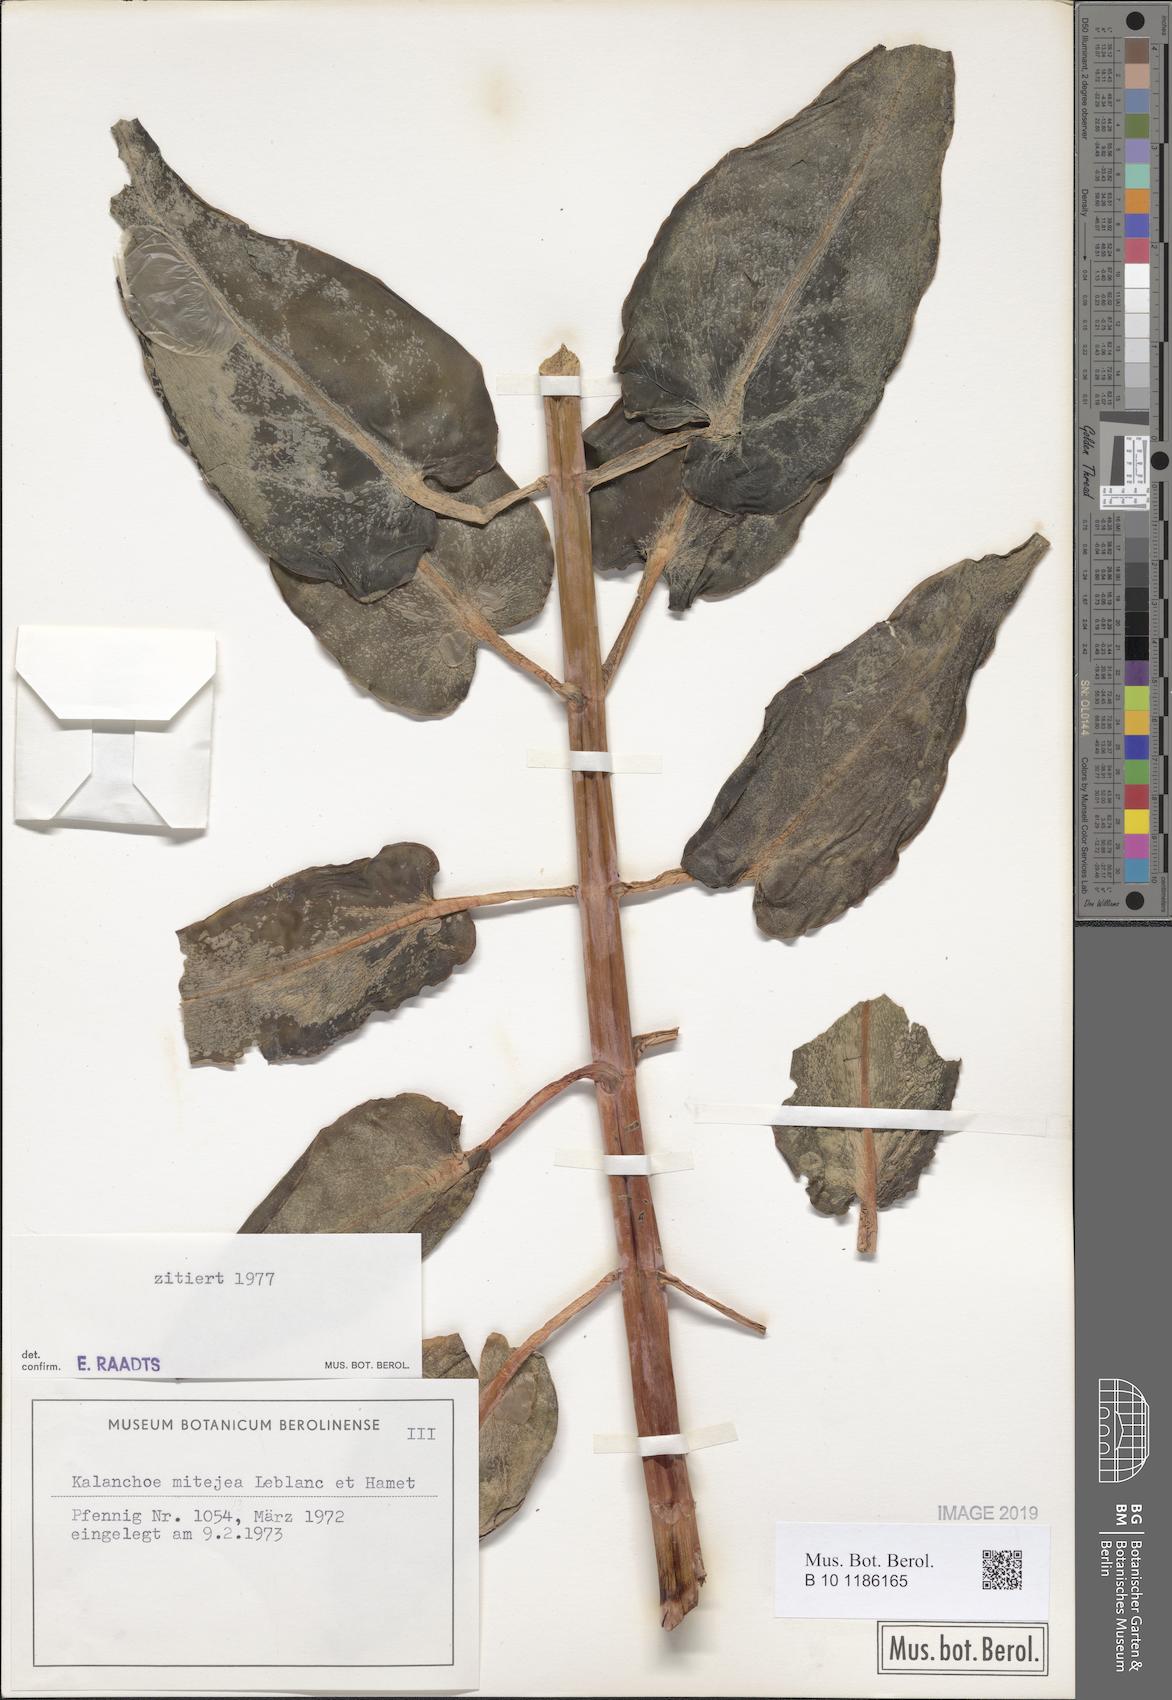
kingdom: Plantae
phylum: Tracheophyta
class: Magnoliopsida
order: Saxifragales
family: Crassulaceae
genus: Kalanchoe
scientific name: Kalanchoe mitejea
